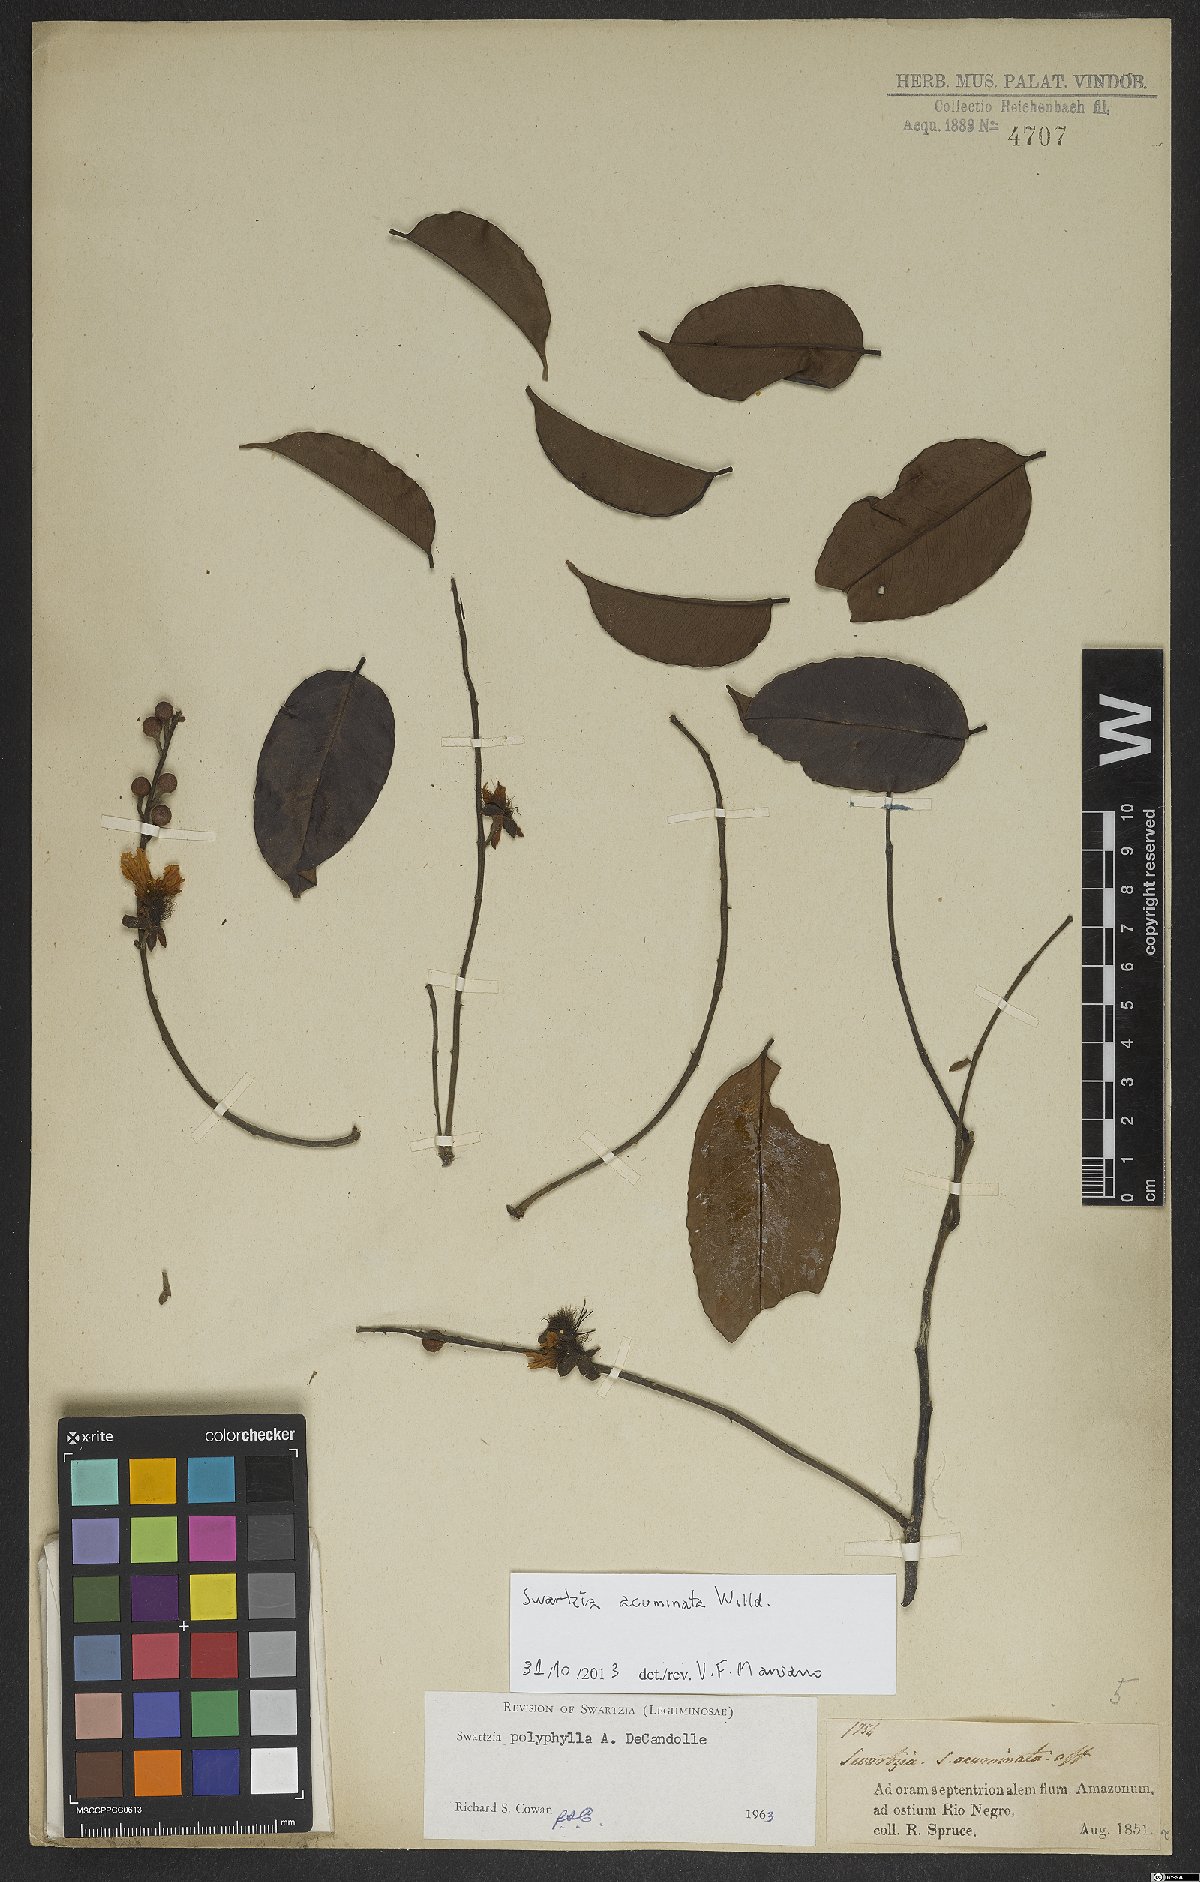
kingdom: Plantae
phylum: Tracheophyta
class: Magnoliopsida
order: Fabales
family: Fabaceae
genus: Swartzia
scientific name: Swartzia acuminata
